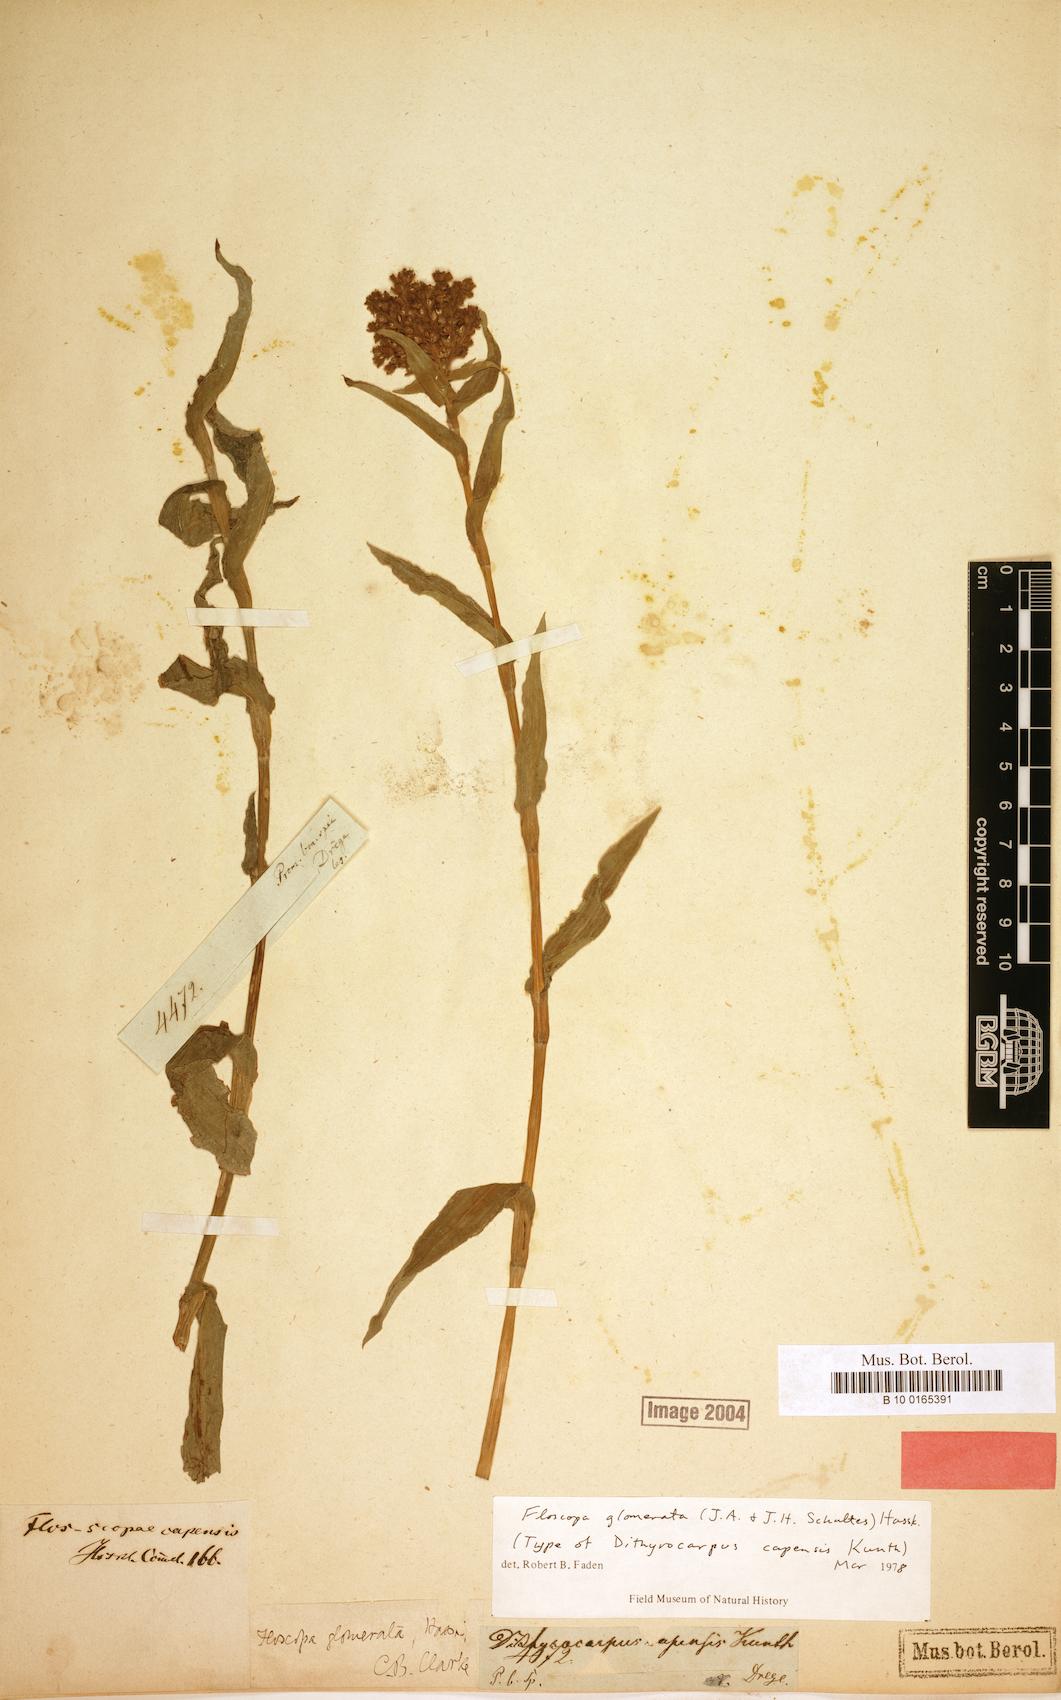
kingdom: Plantae
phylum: Tracheophyta
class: Liliopsida
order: Commelinales
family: Commelinaceae
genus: Floscopa
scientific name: Floscopa glomerata
